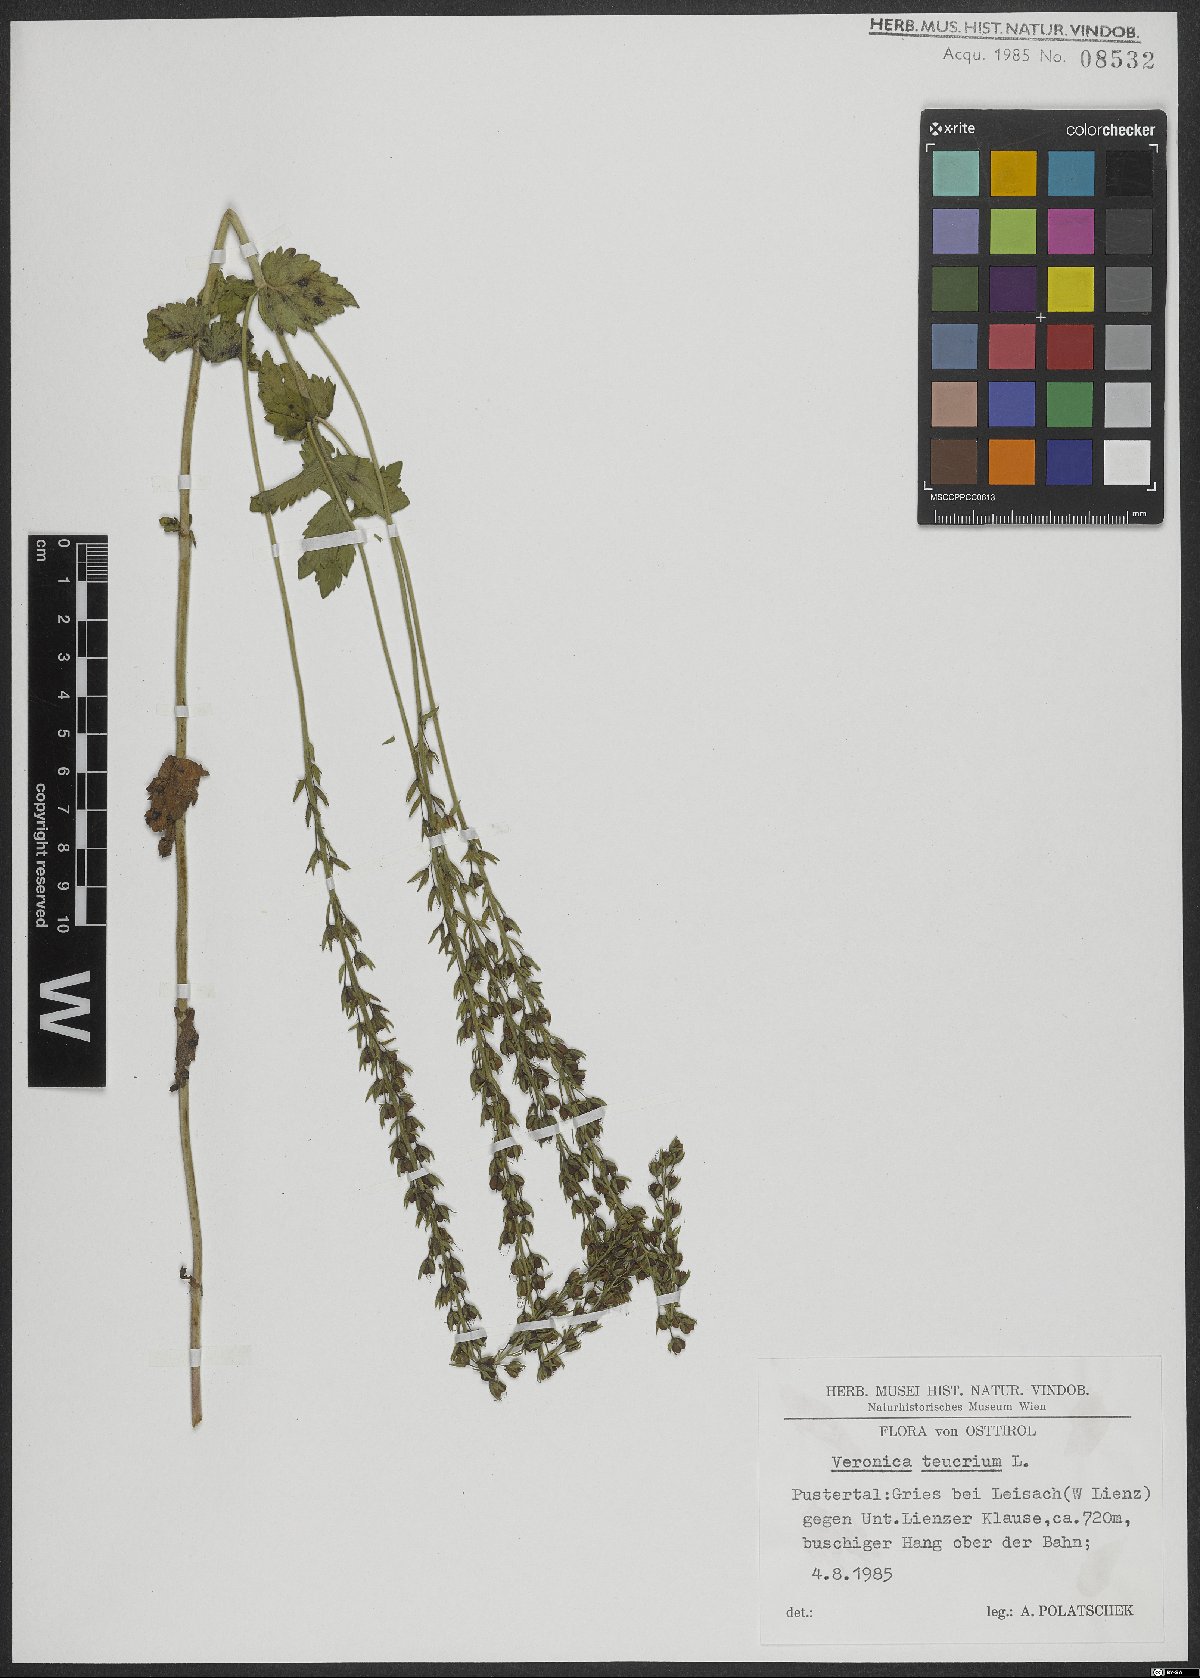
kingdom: Plantae
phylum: Tracheophyta
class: Magnoliopsida
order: Lamiales
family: Plantaginaceae
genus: Veronica
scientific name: Veronica teucrium
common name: Large speedwell
